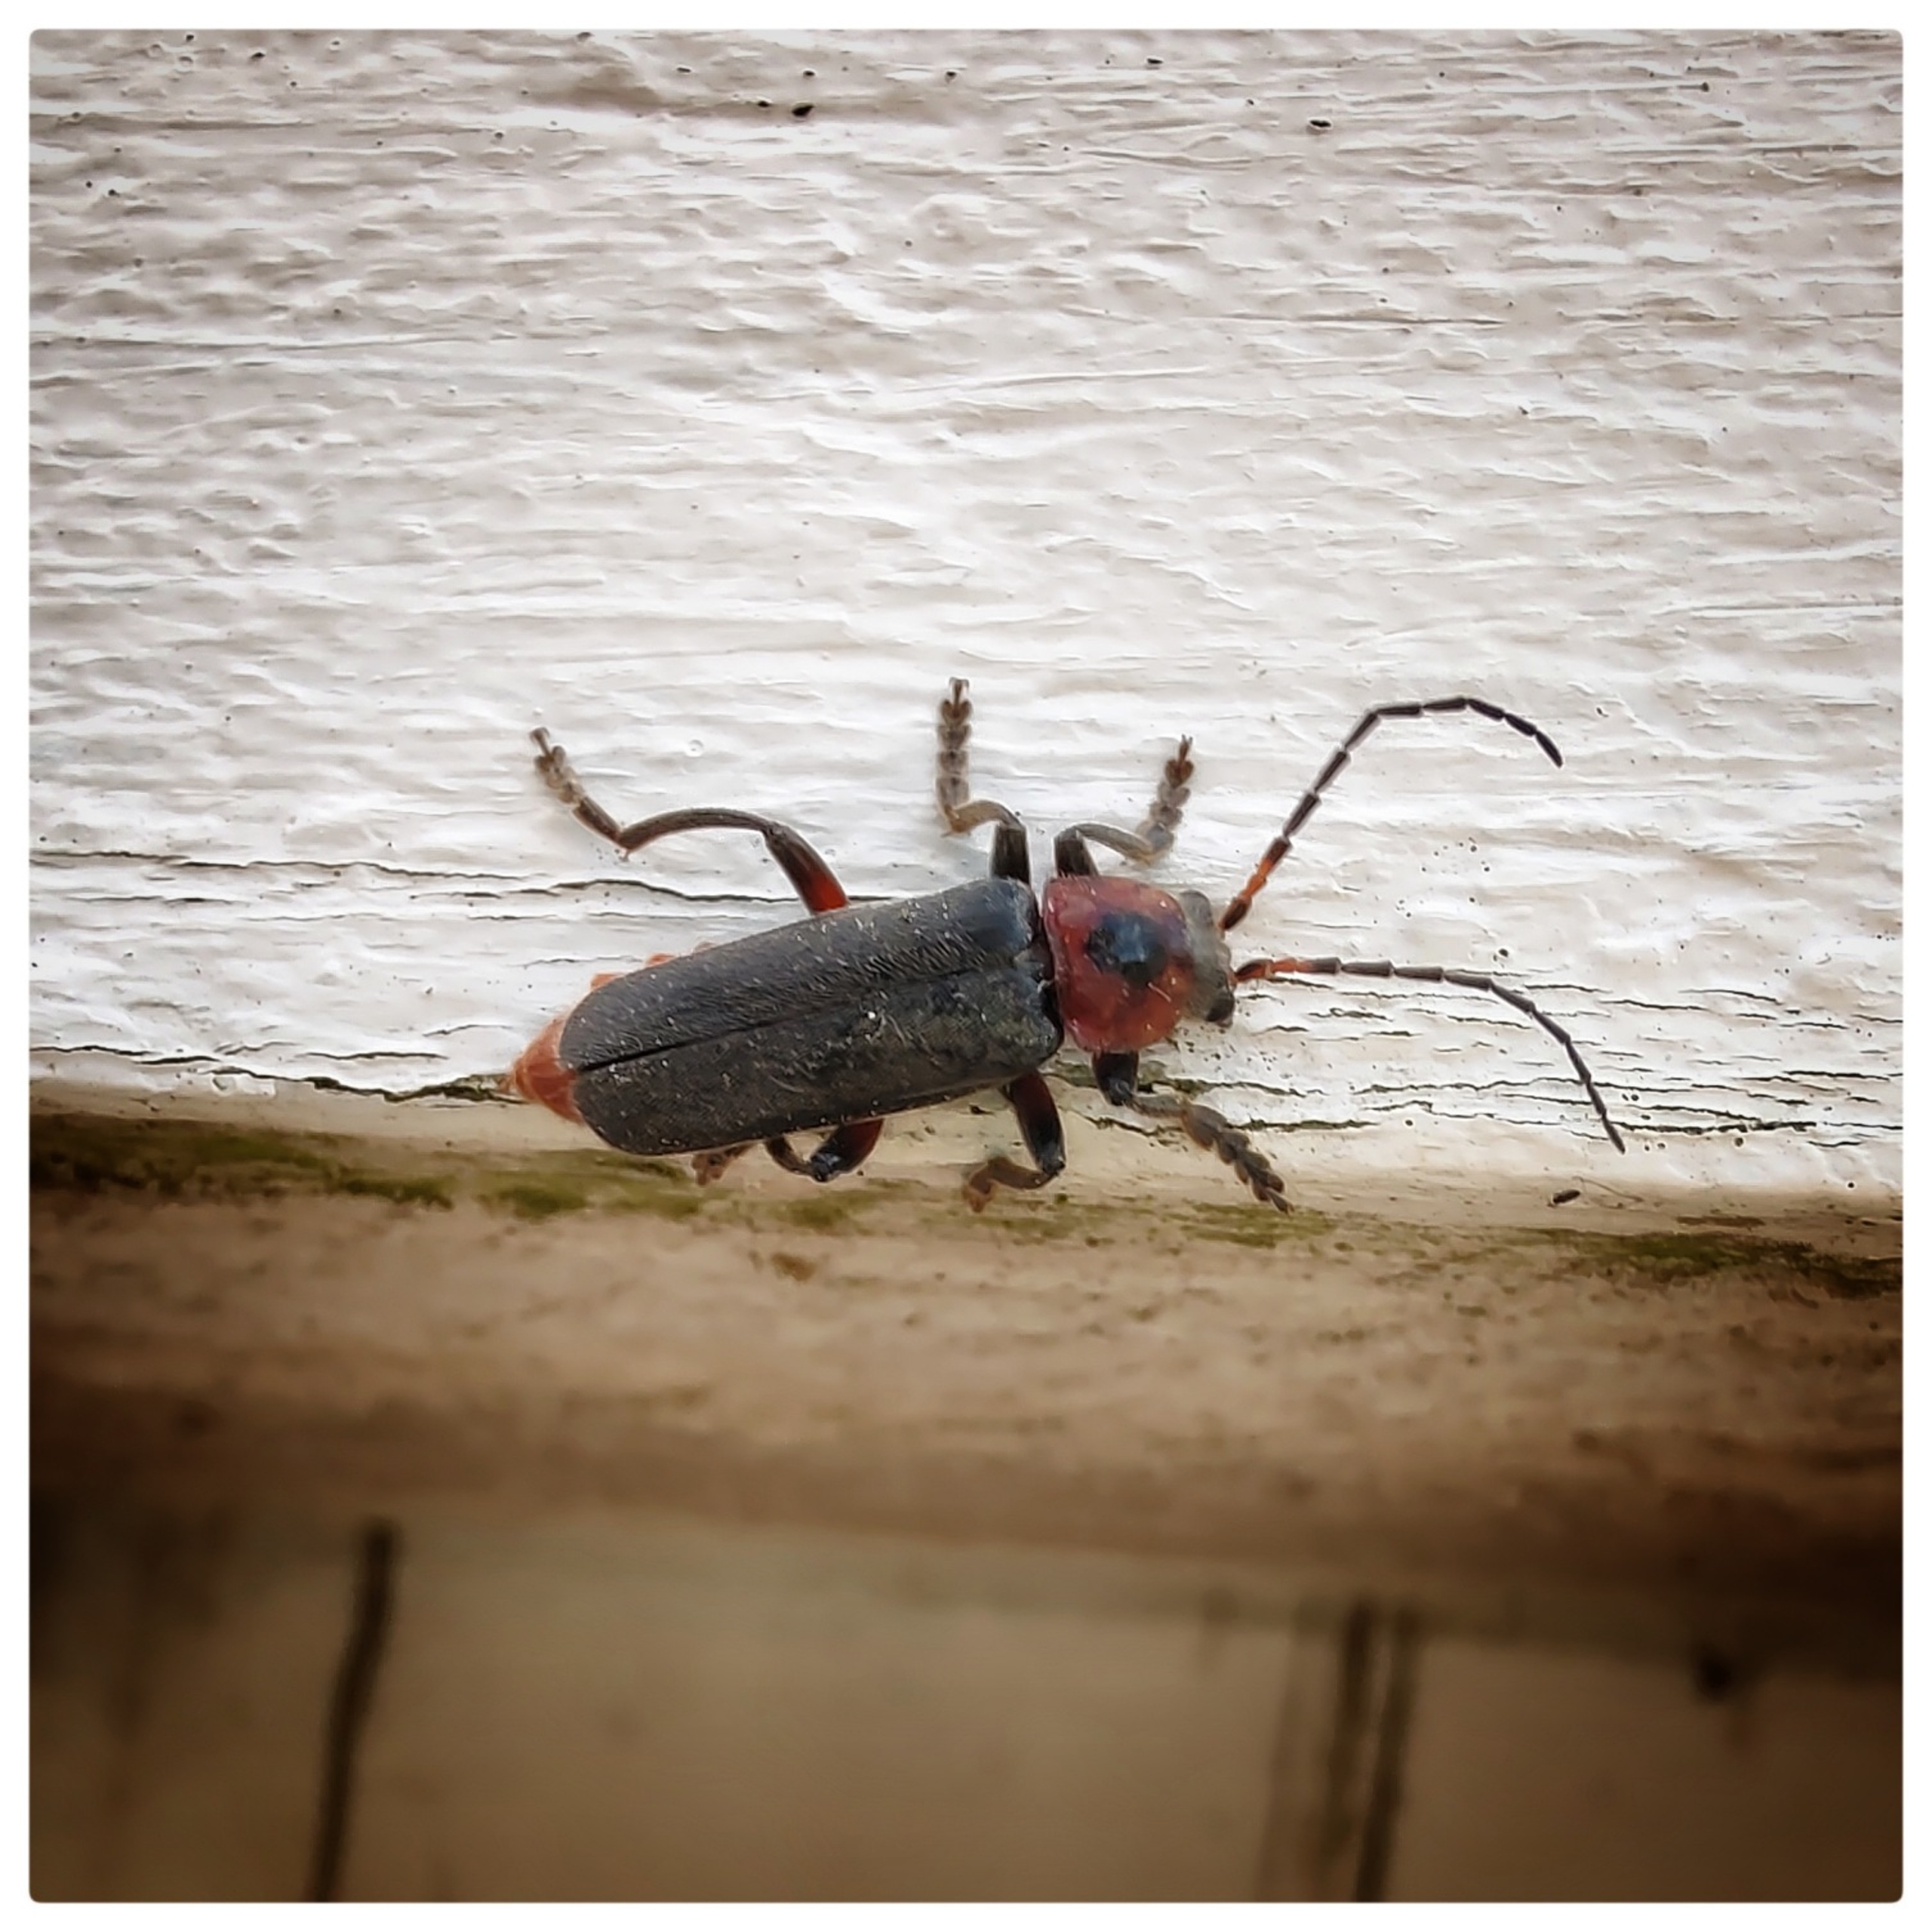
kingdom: Animalia
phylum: Arthropoda
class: Insecta
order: Coleoptera
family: Cantharidae
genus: Cantharis
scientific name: Cantharis rustica
